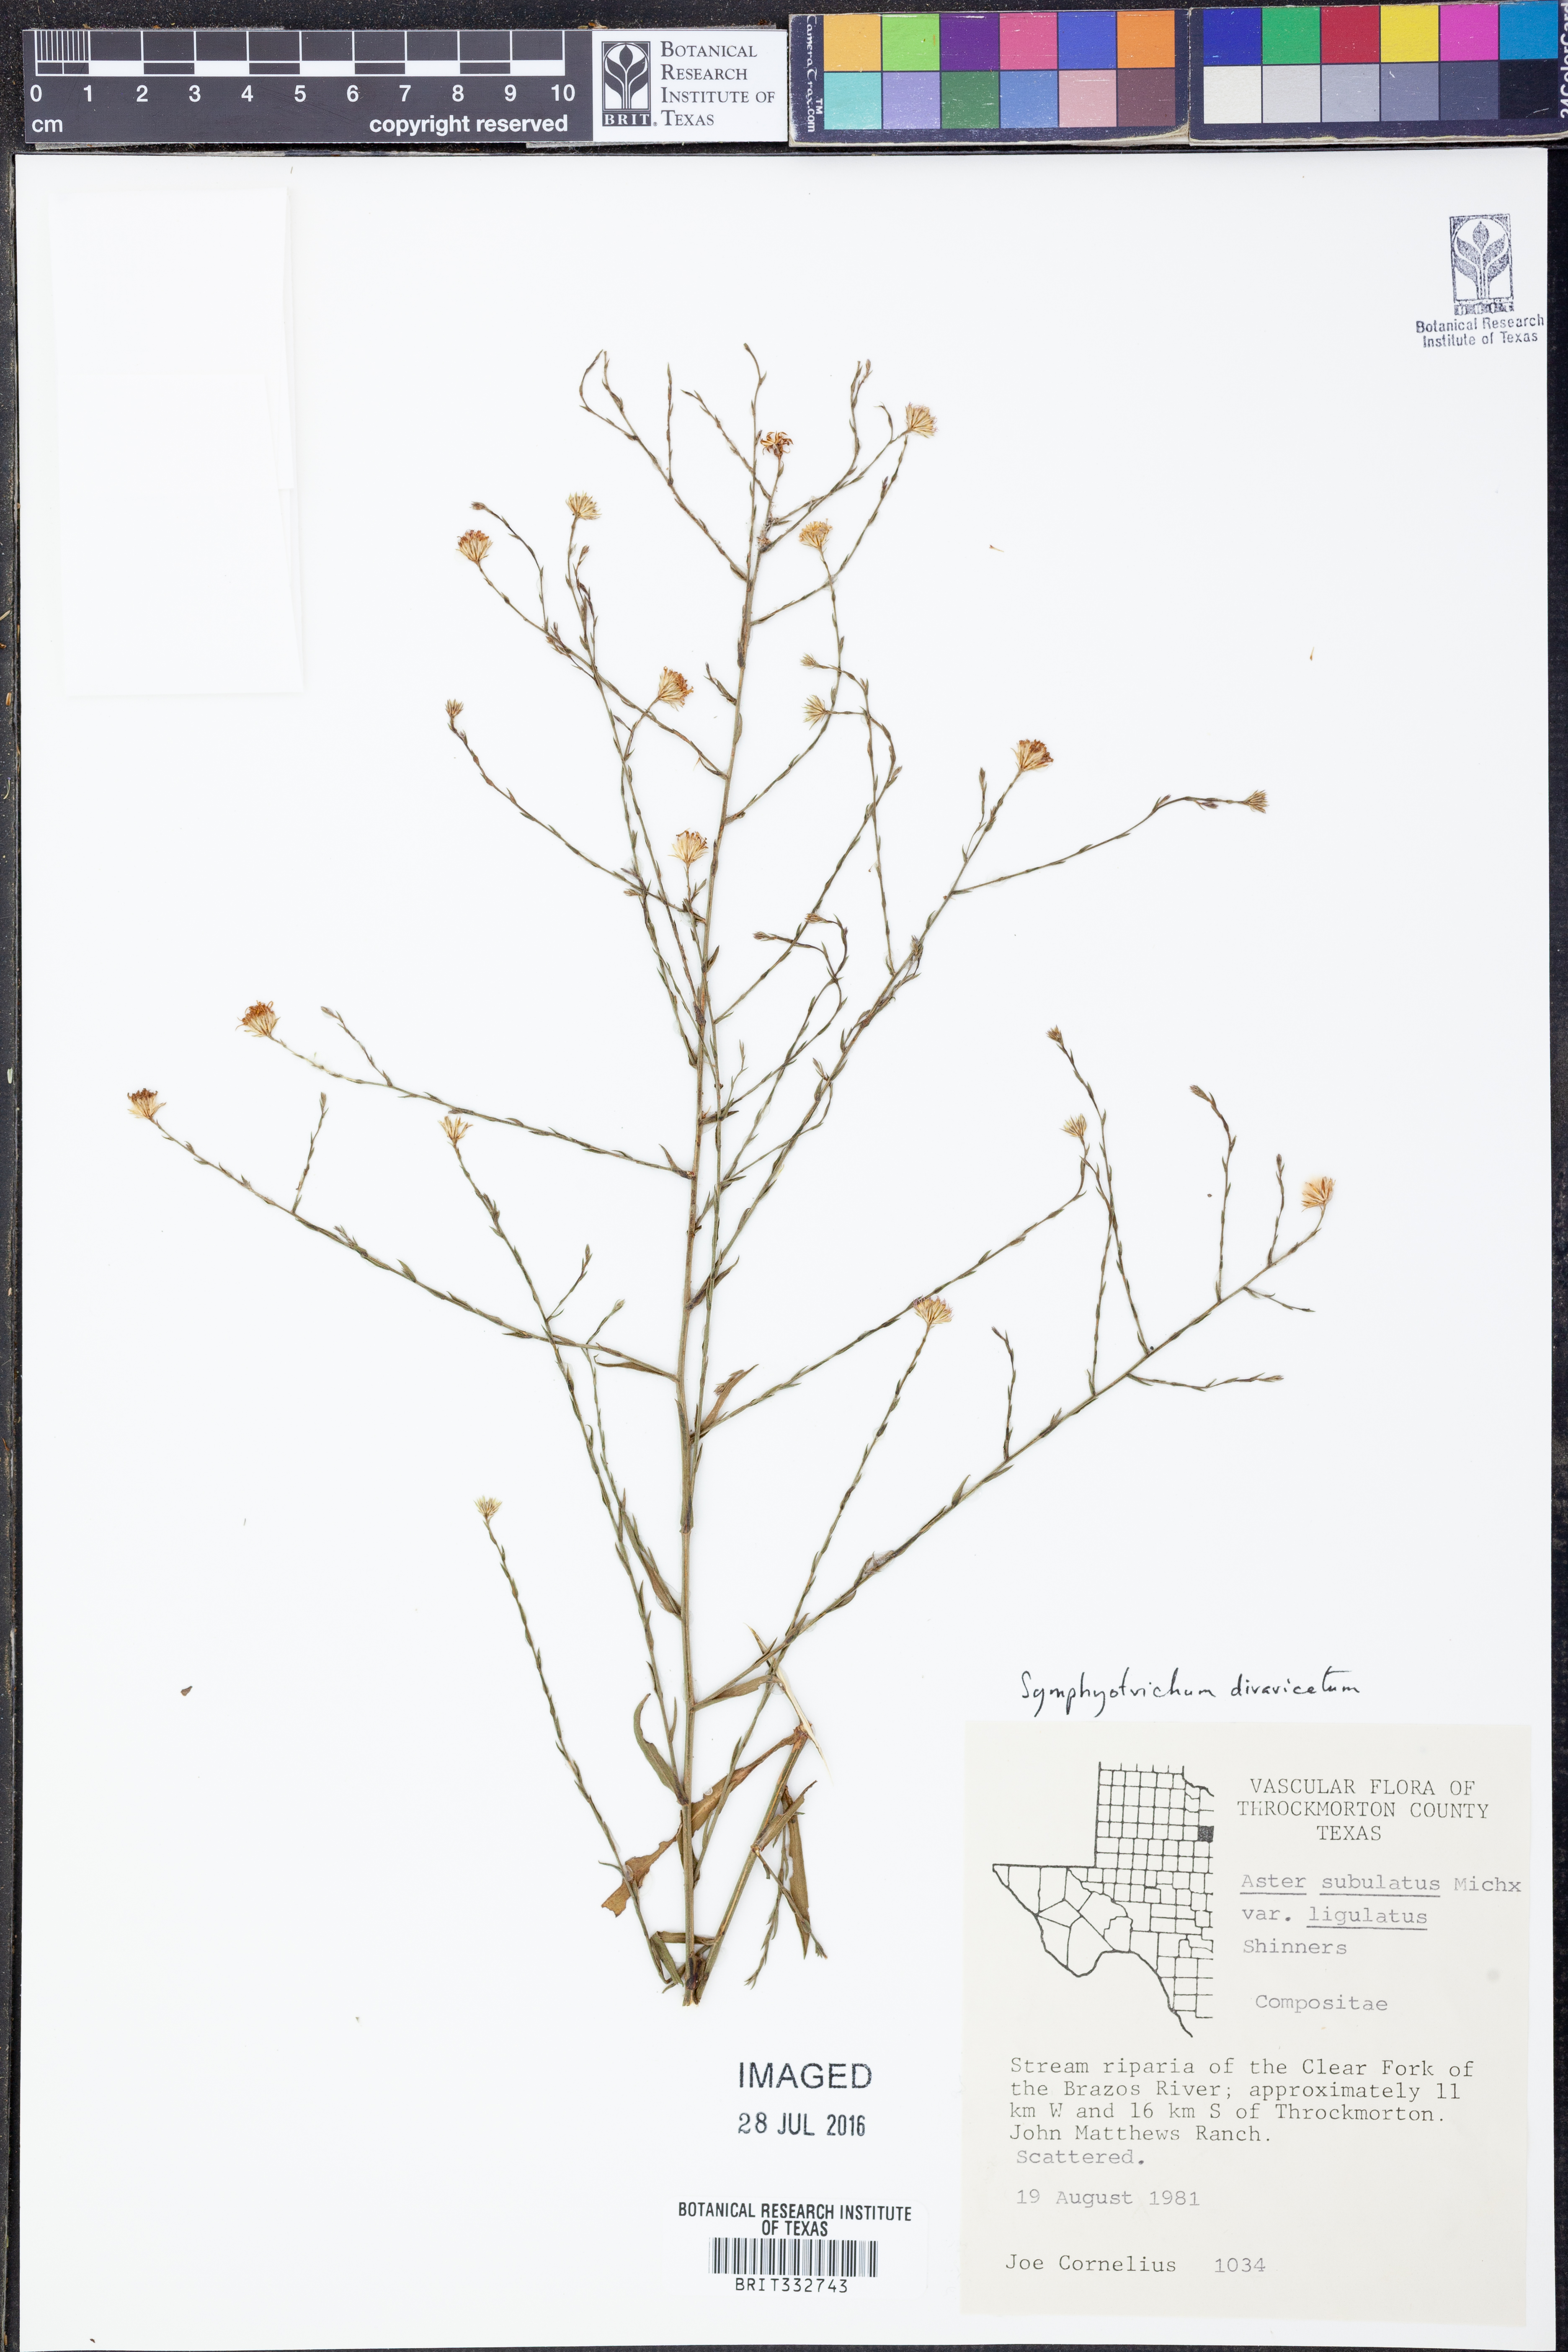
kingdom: Plantae
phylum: Tracheophyta
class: Magnoliopsida
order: Asterales
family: Asteraceae
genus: Symphyotrichum
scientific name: Symphyotrichum divaricatum
